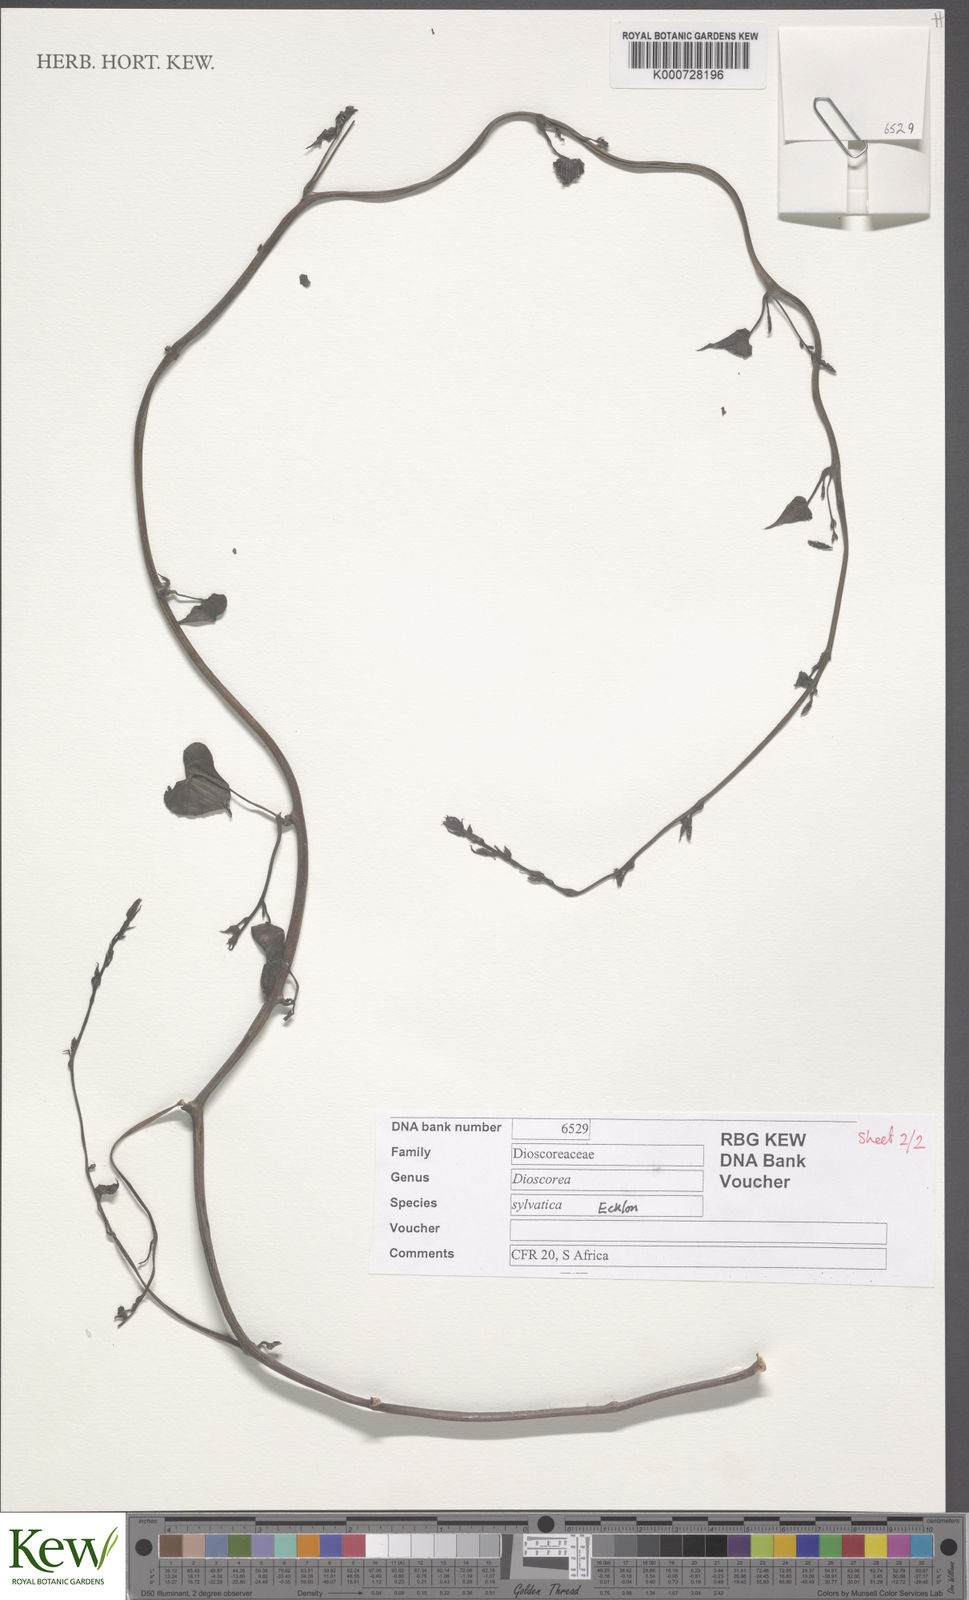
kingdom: Plantae
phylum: Tracheophyta
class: Liliopsida
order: Dioscoreales
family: Dioscoreaceae
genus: Dioscorea
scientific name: Dioscorea sylvatica
